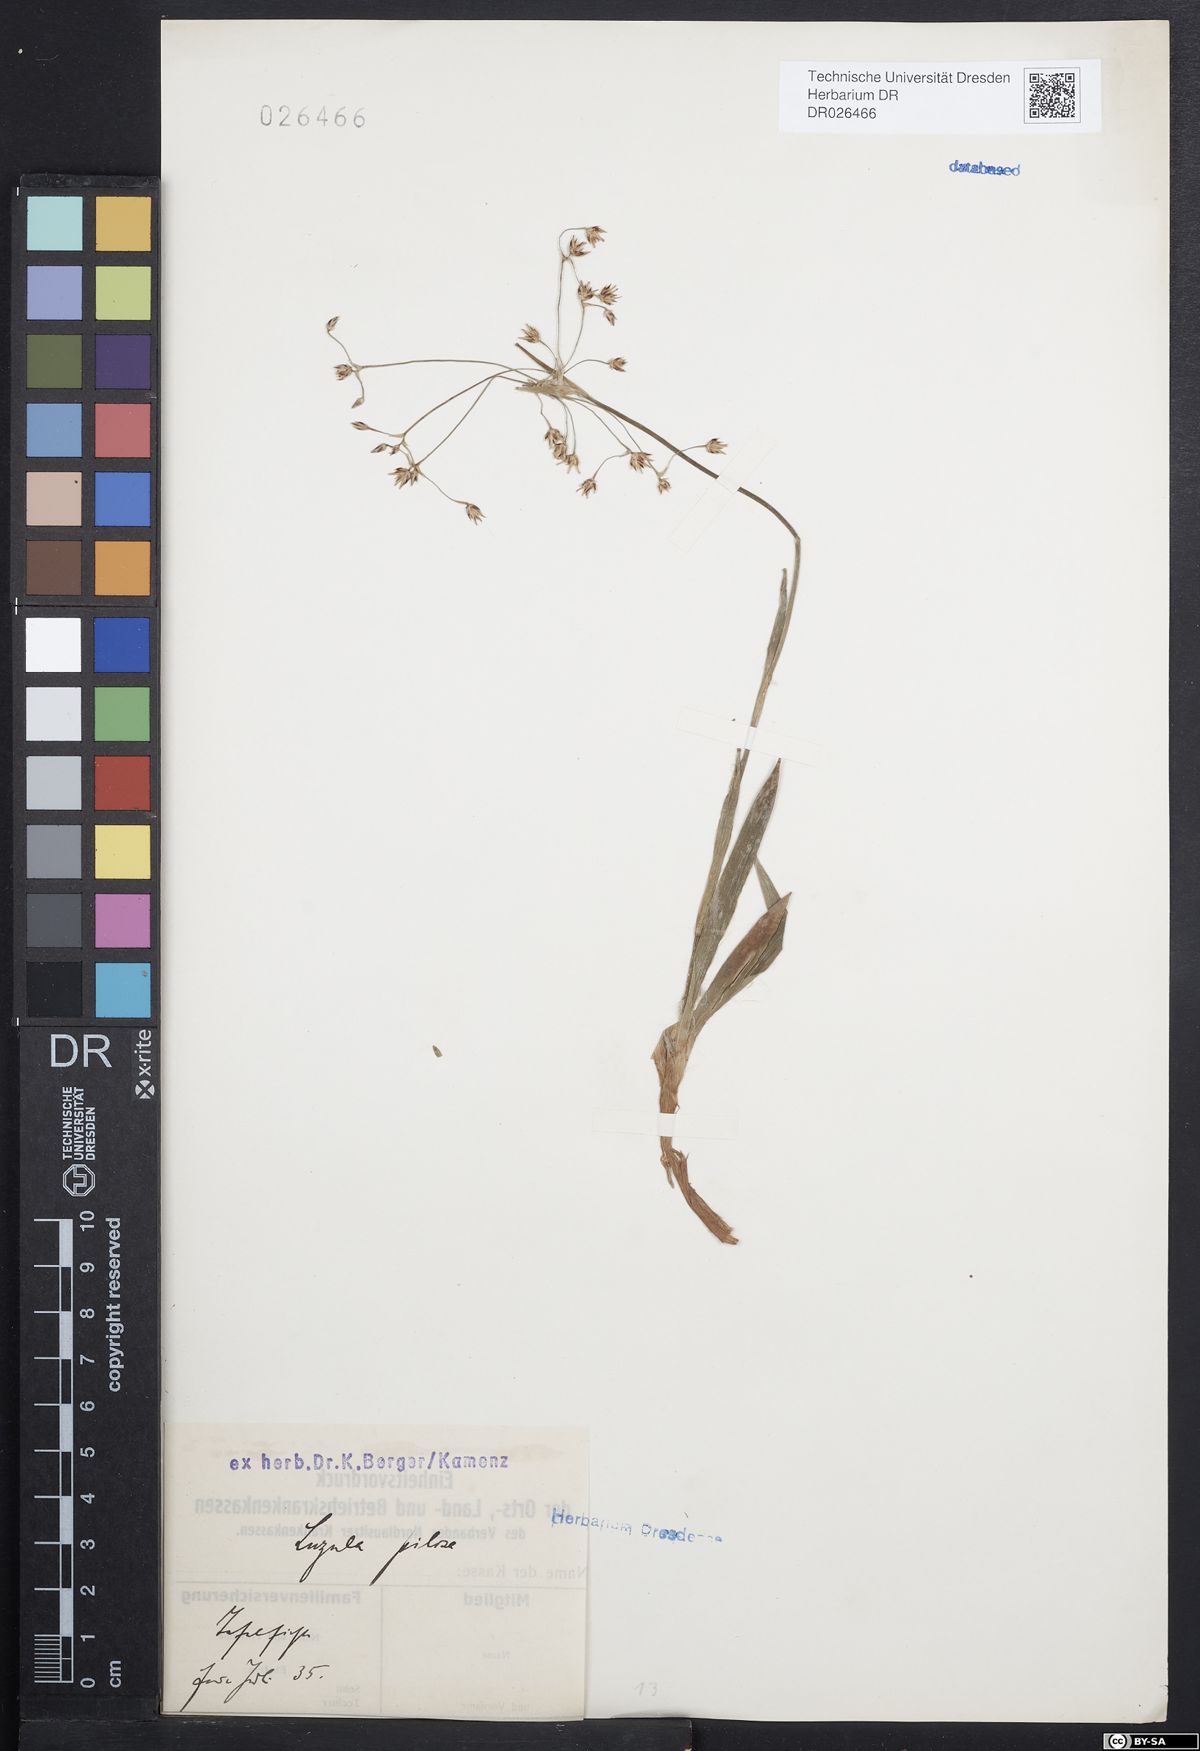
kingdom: Plantae
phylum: Tracheophyta
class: Liliopsida
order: Poales
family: Juncaceae
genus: Luzula
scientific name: Luzula pilosa
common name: Hairy wood-rush
